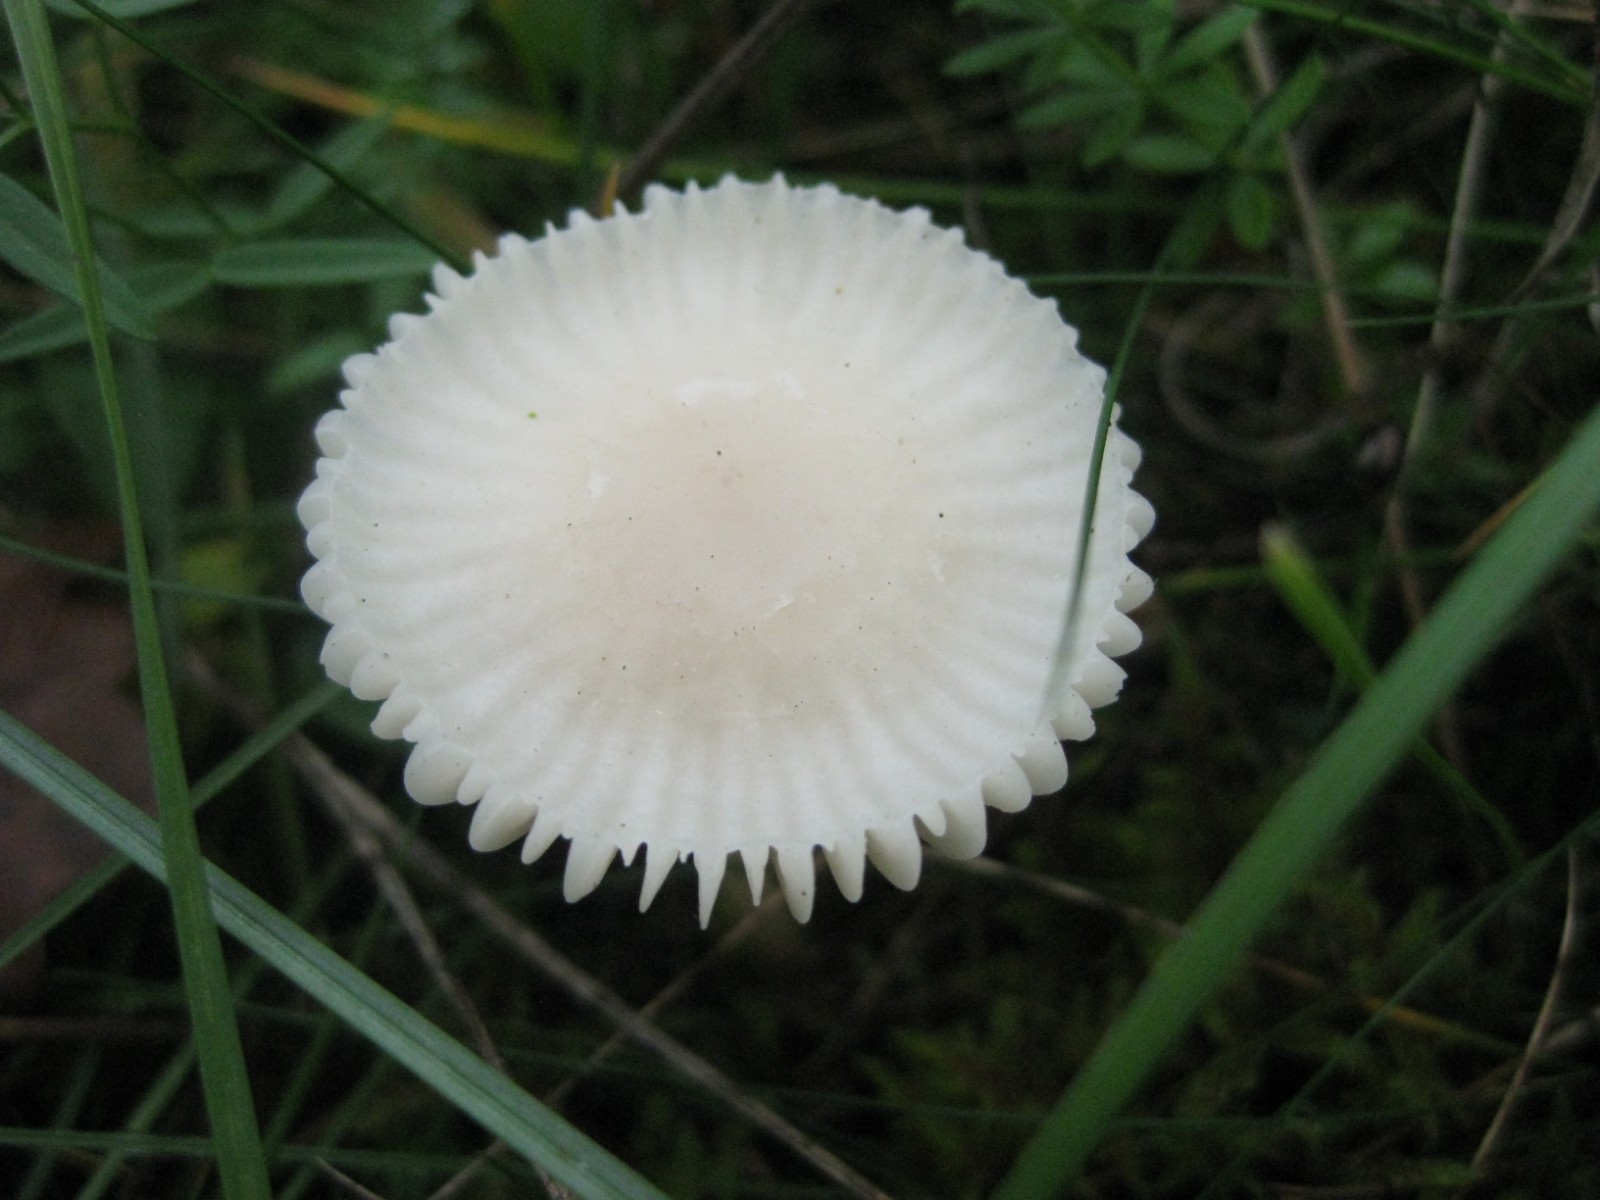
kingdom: Fungi
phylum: Basidiomycota
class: Agaricomycetes
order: Agaricales
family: Hygrophoraceae
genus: Cuphophyllus
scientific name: Cuphophyllus virgineus
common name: snehvid vokshat
